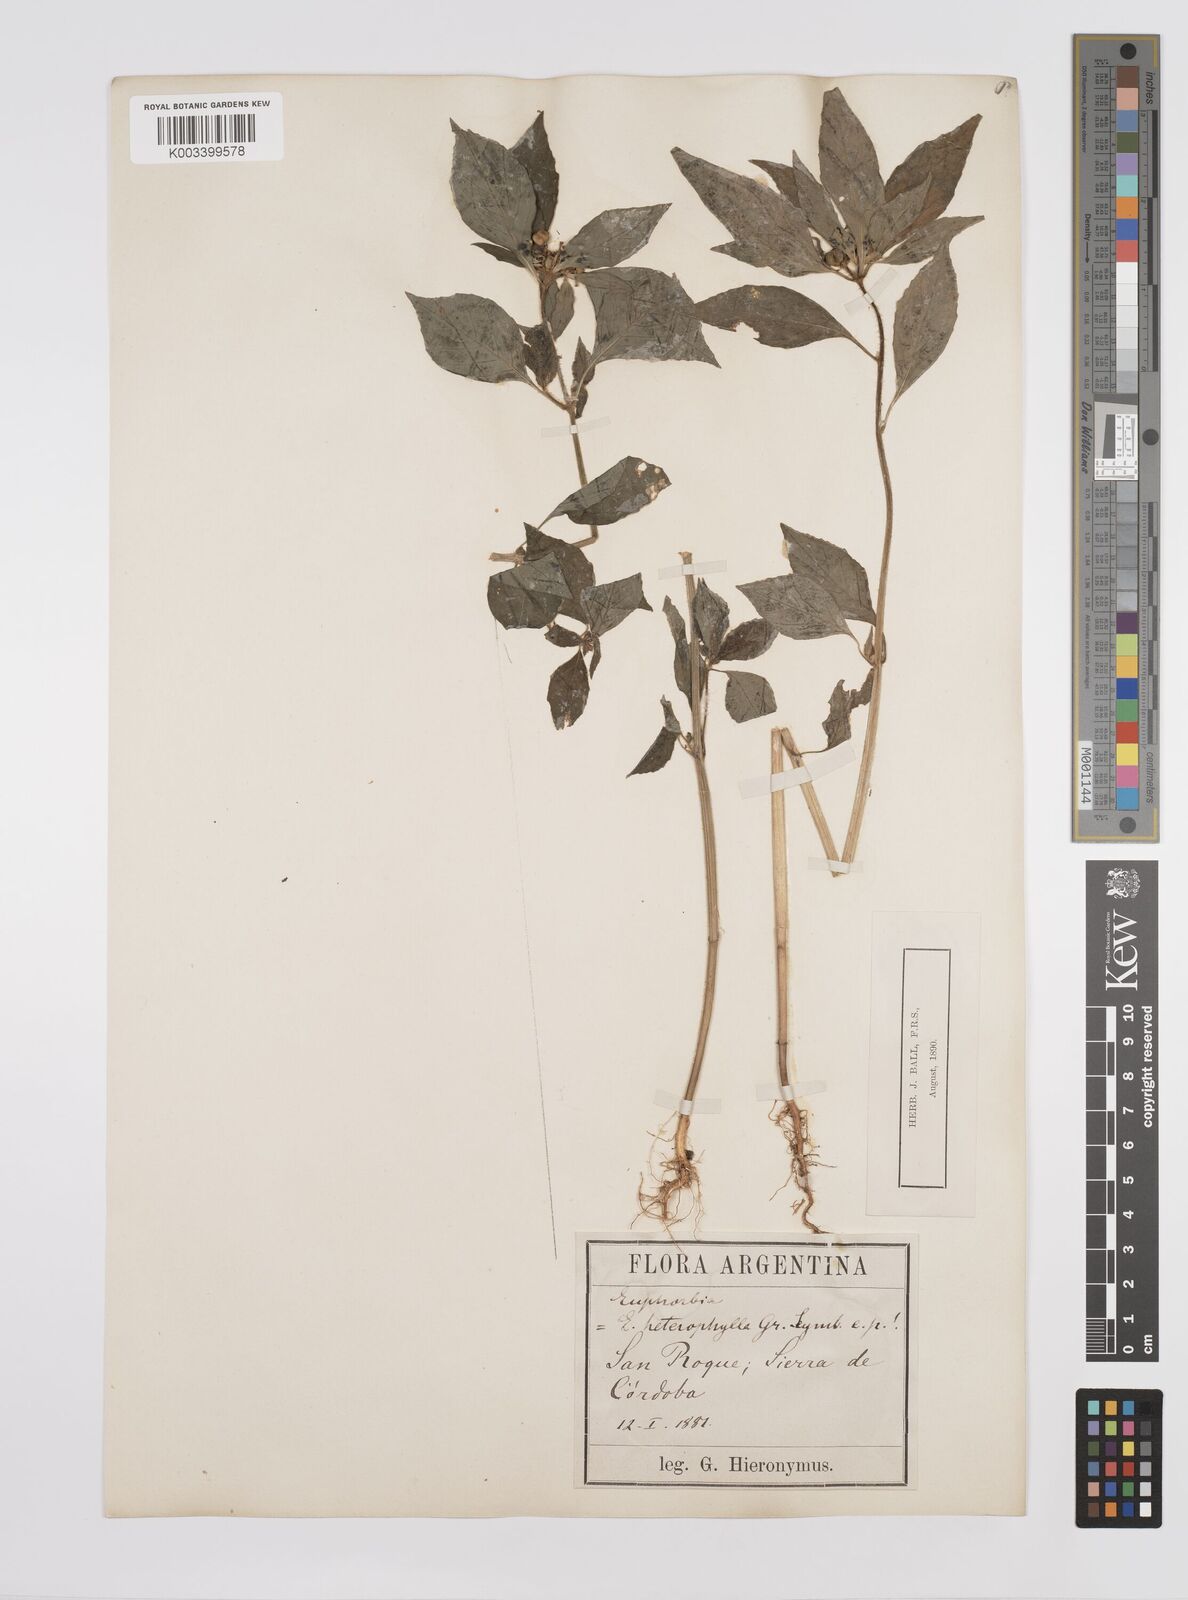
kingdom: Plantae
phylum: Tracheophyta
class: Magnoliopsida
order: Malpighiales
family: Euphorbiaceae
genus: Euphorbia
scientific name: Euphorbia
